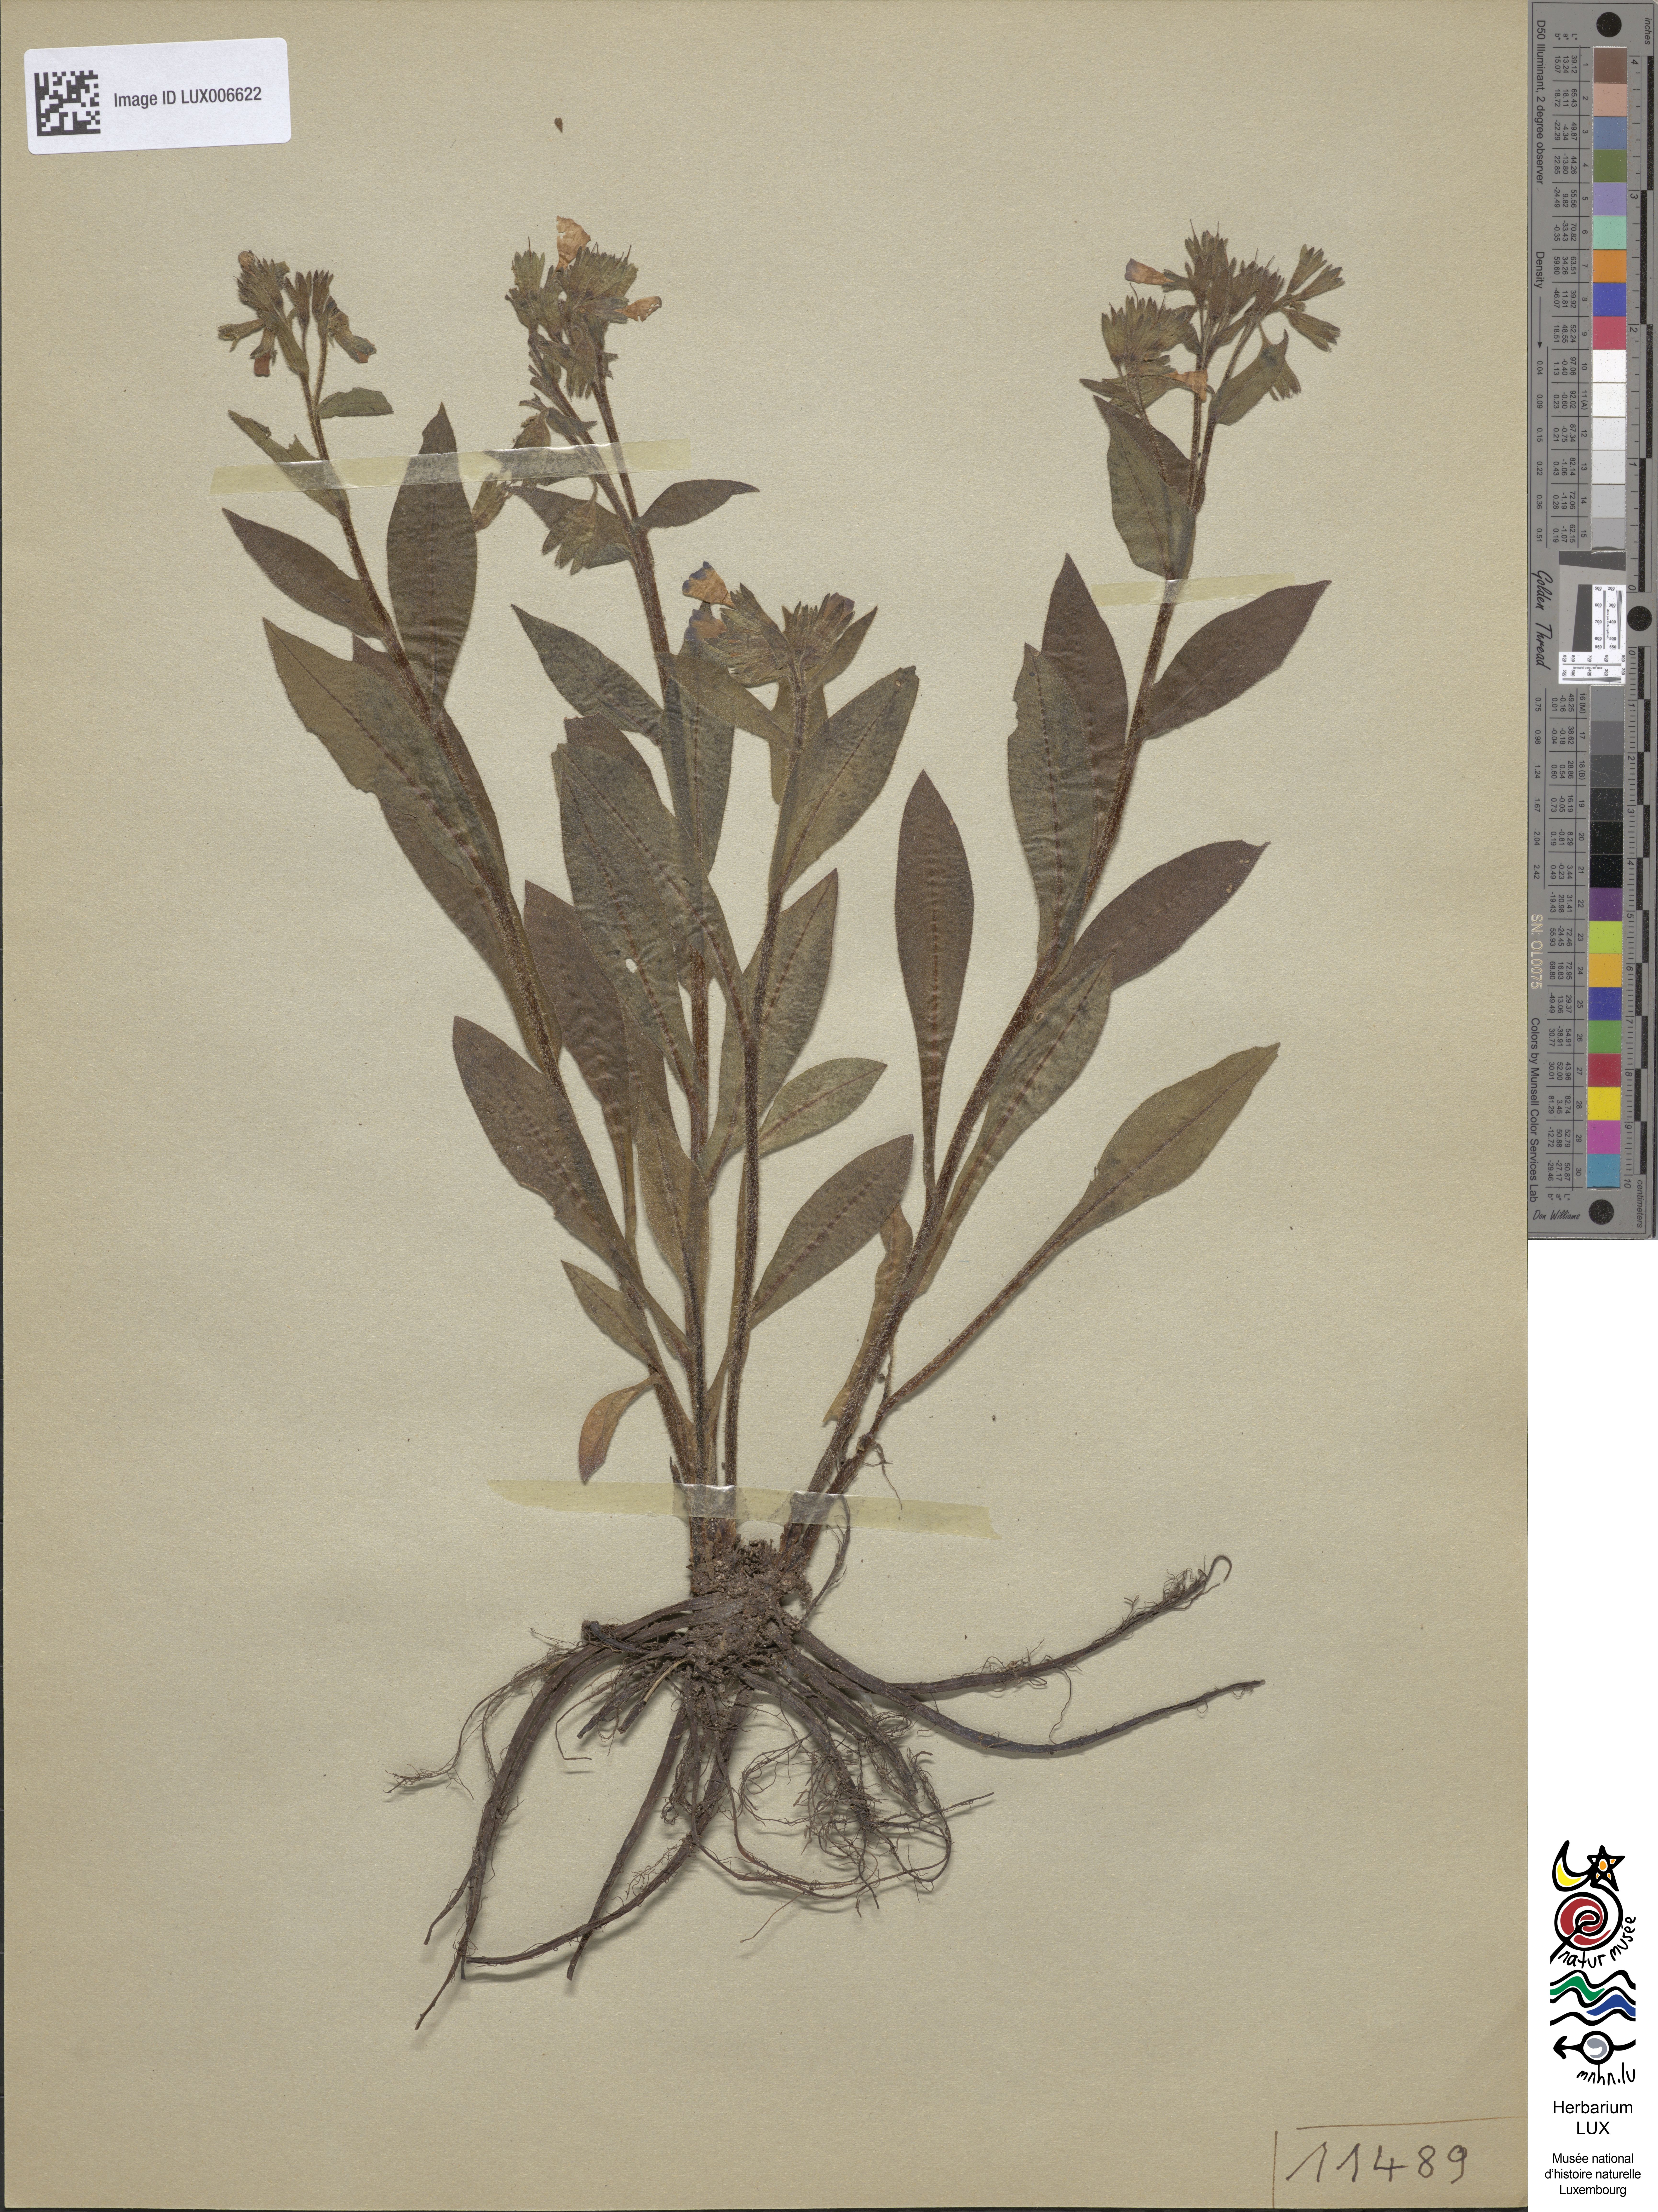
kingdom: Plantae
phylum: Tracheophyta
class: Magnoliopsida
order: Boraginales
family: Boraginaceae
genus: Pulmonaria
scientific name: Pulmonaria mollis
